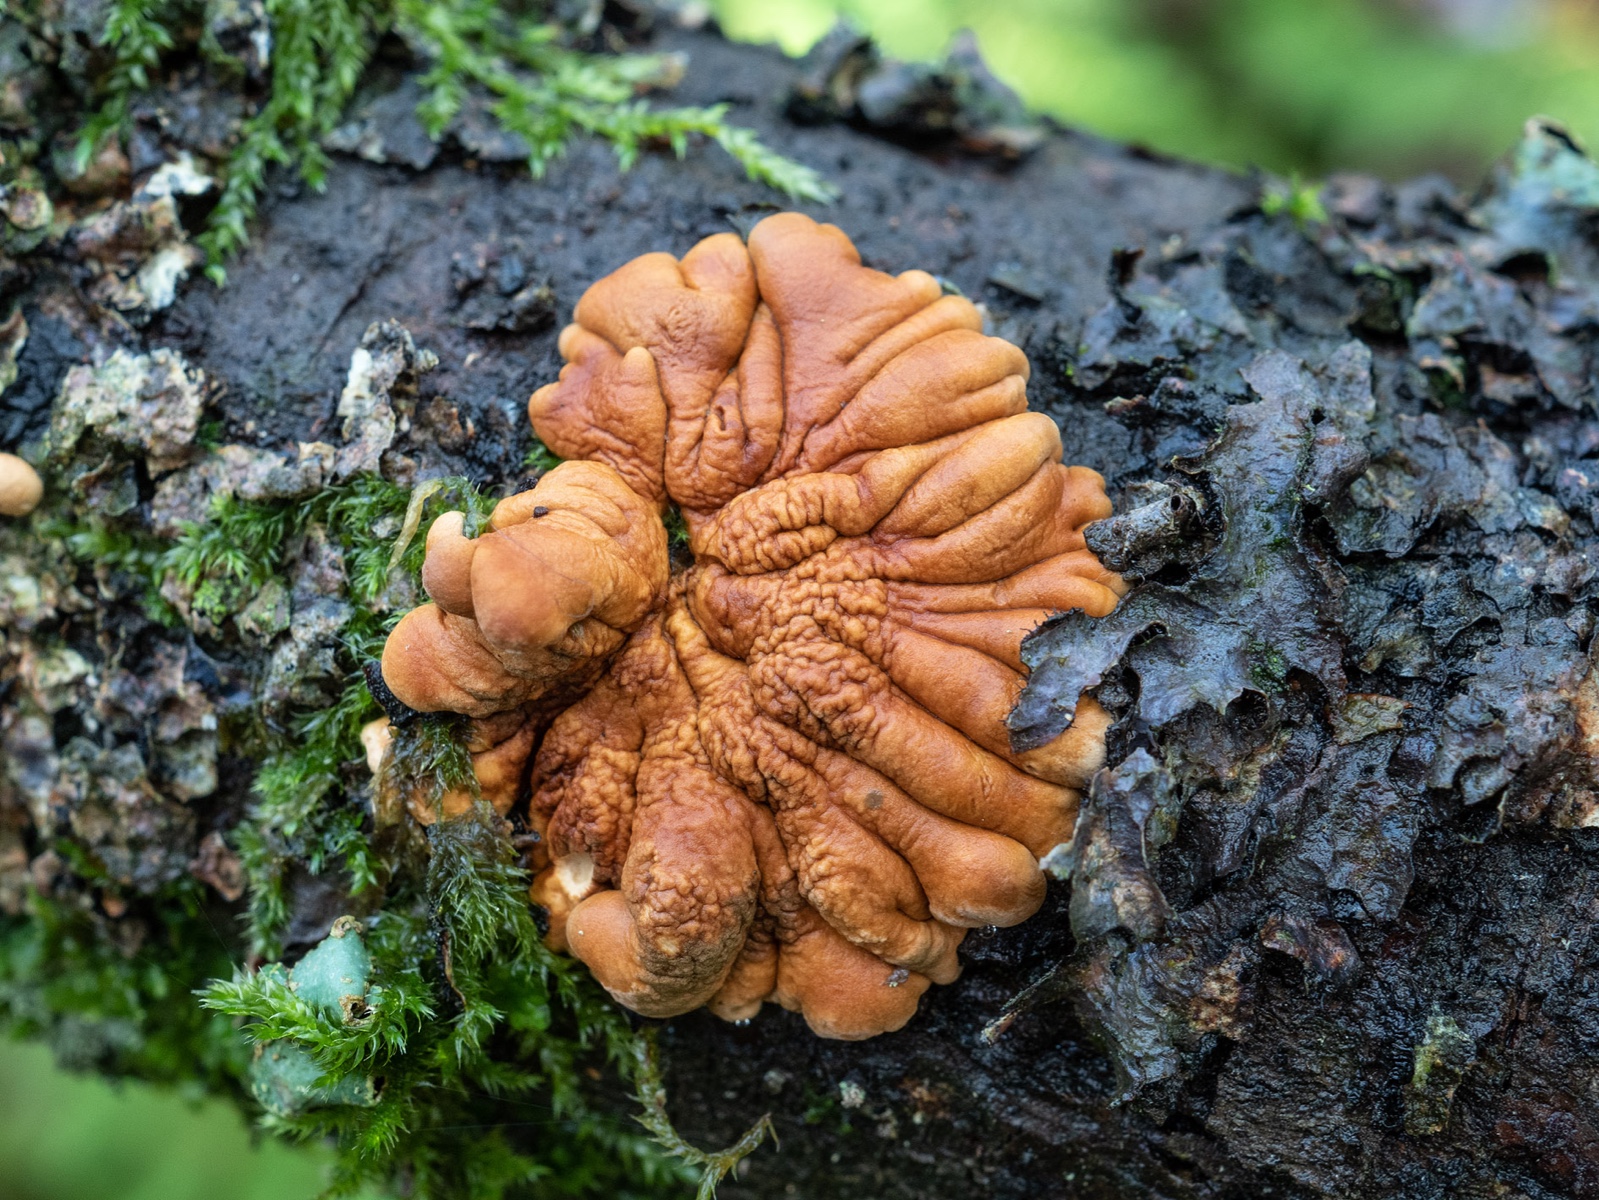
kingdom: Fungi
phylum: Ascomycota
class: Sordariomycetes
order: Hypocreales
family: Hypocreaceae
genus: Hypocreopsis
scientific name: Hypocreopsis lichenoides
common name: pilfinger
